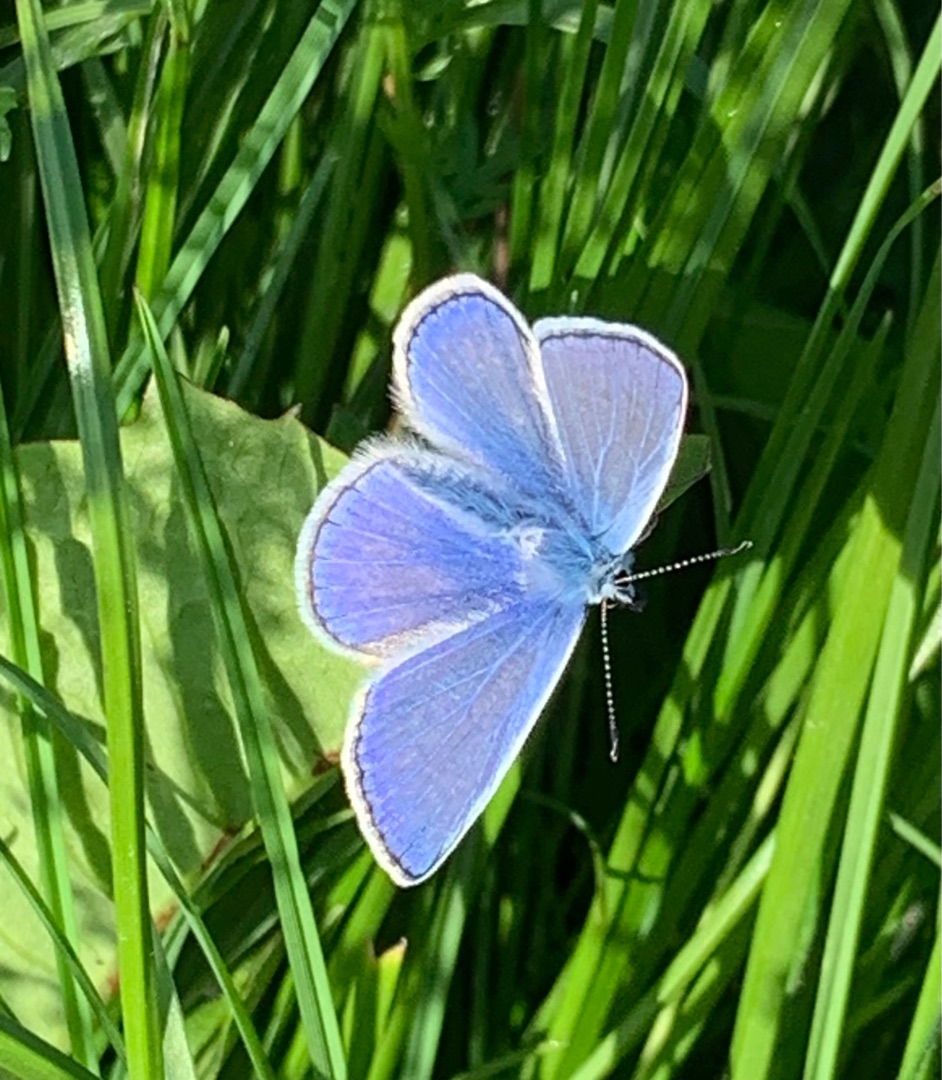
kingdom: Animalia
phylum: Arthropoda
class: Insecta
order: Lepidoptera
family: Lycaenidae
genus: Polyommatus
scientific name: Polyommatus icarus
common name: Almindelig blåfugl
